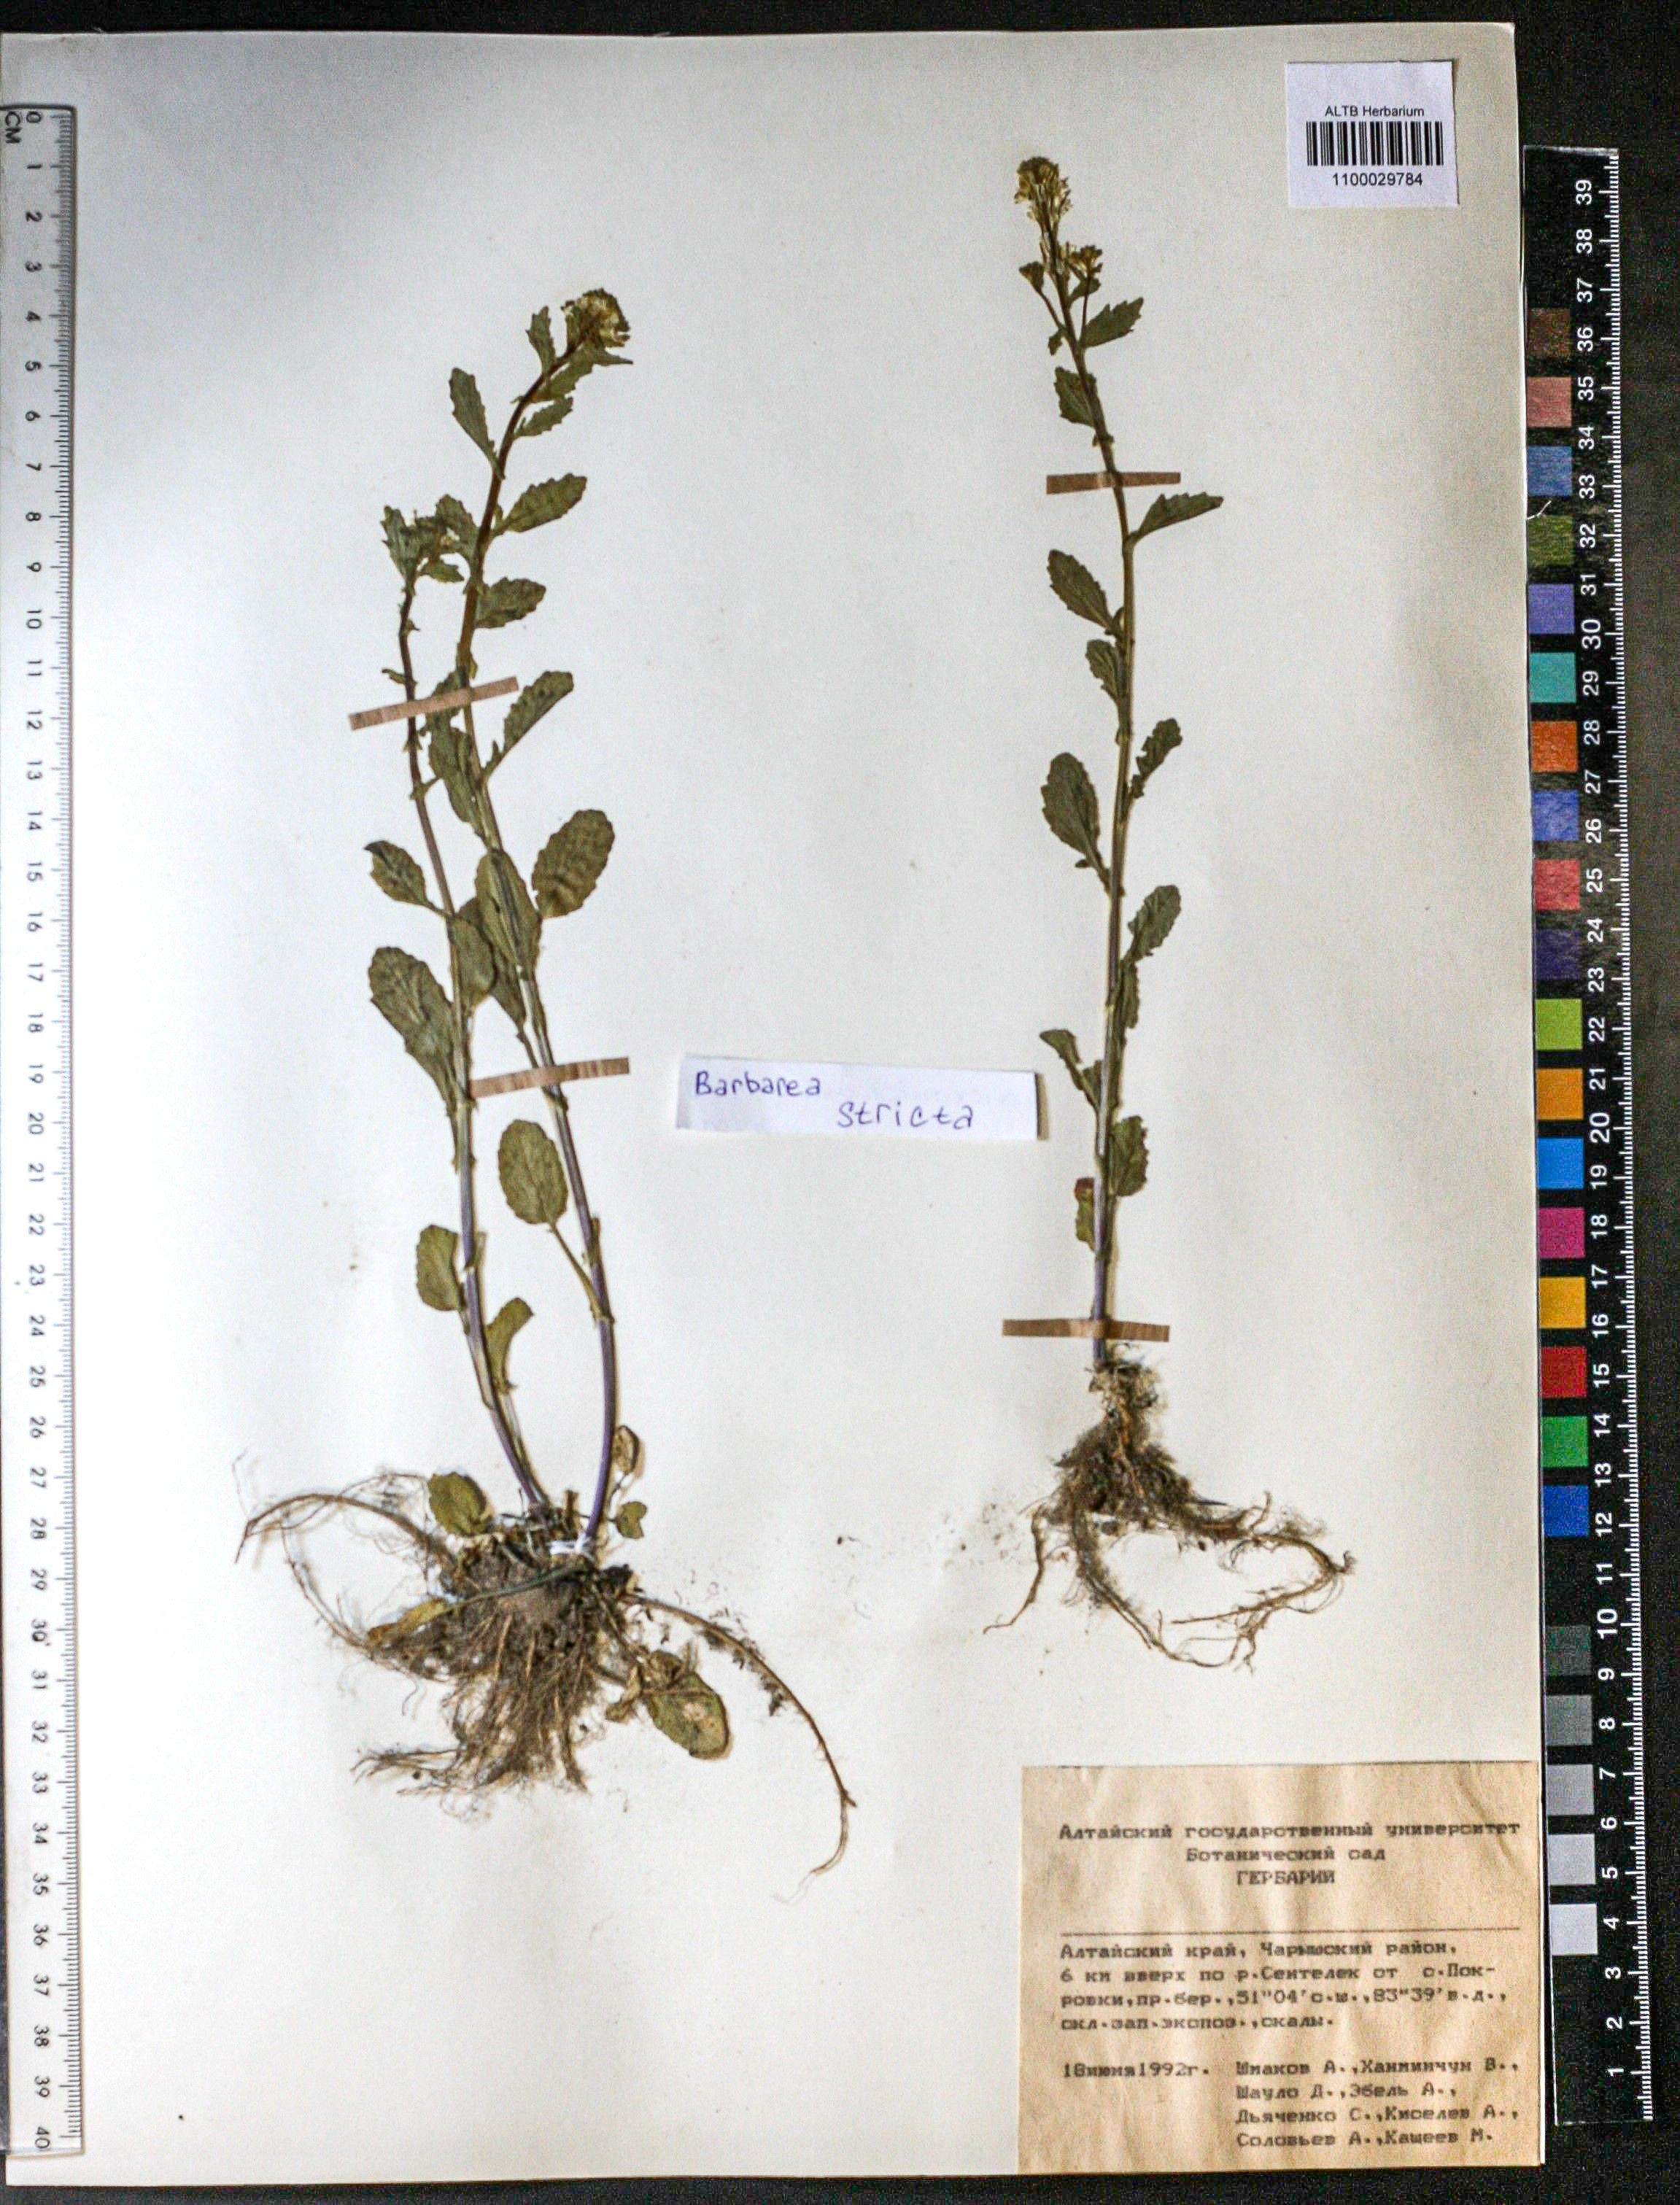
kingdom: Plantae
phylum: Tracheophyta
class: Magnoliopsida
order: Brassicales
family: Brassicaceae
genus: Barbarea
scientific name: Barbarea vulgaris
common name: Cressy-greens
